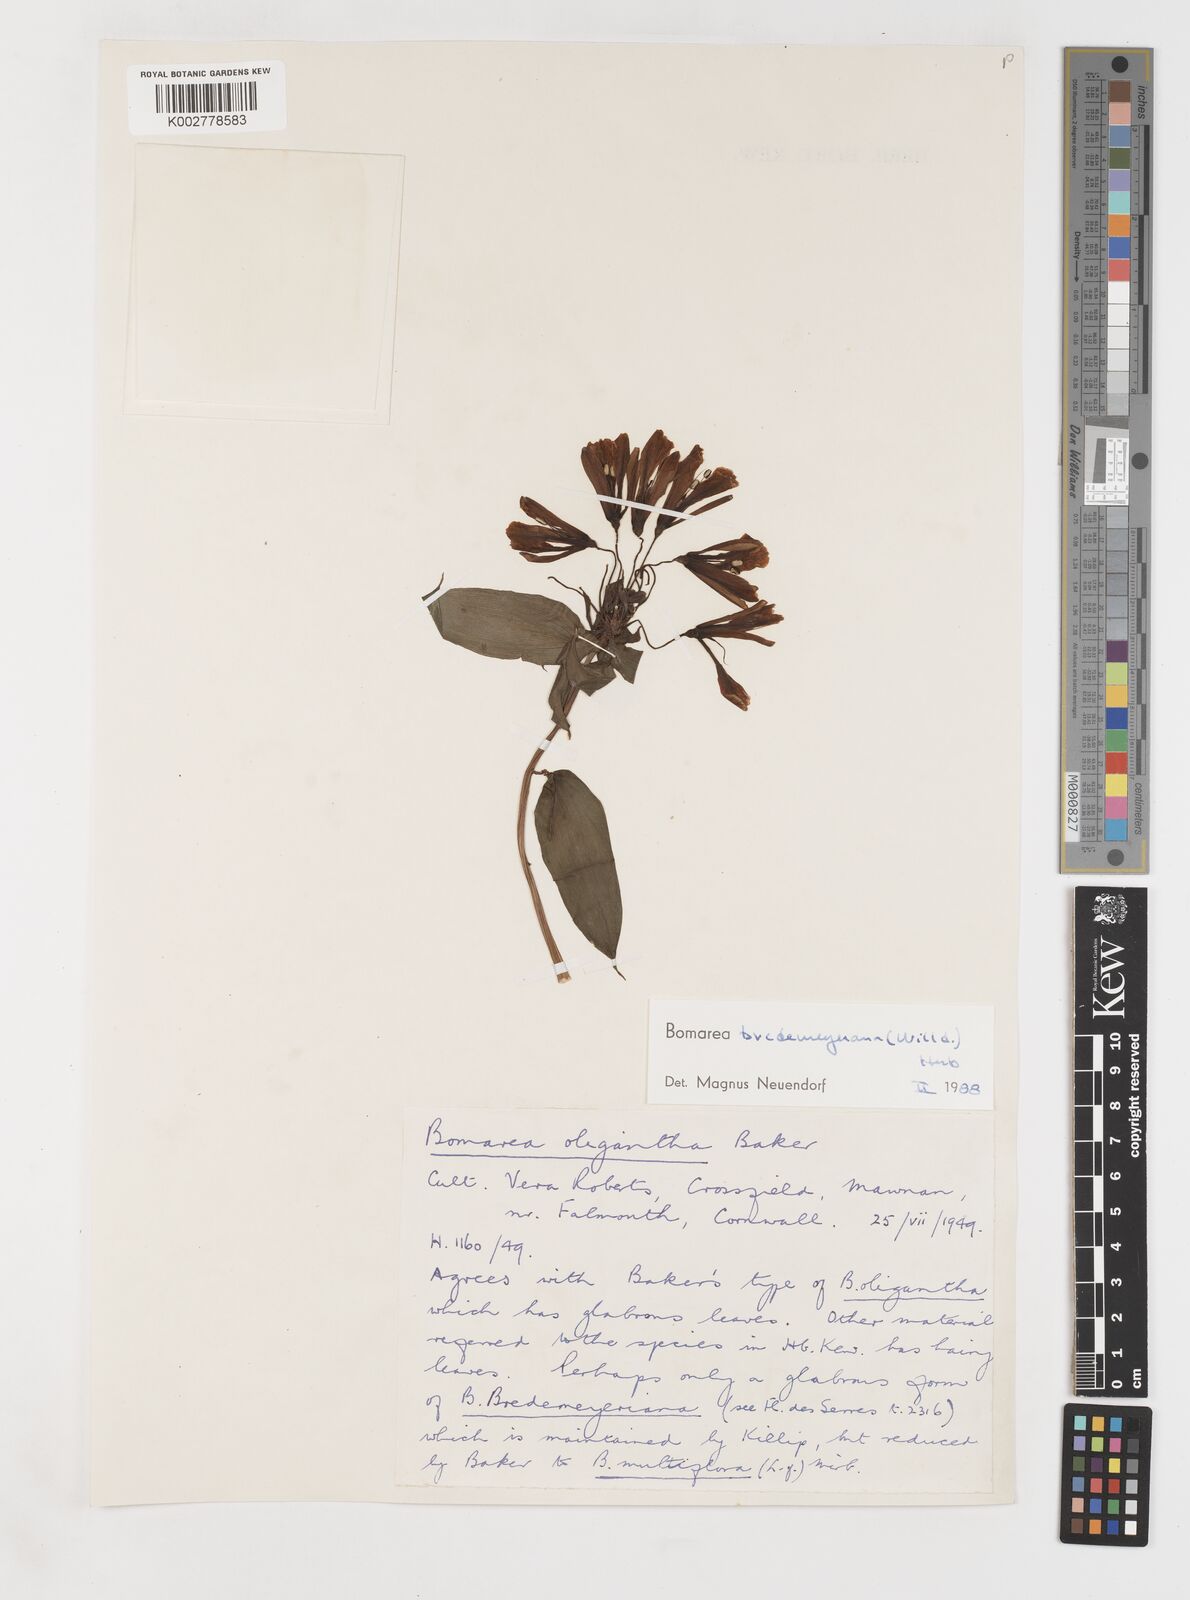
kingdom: Plantae
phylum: Tracheophyta
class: Liliopsida
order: Liliales
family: Alstroemeriaceae
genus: Bomarea
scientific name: Bomarea multiflora
